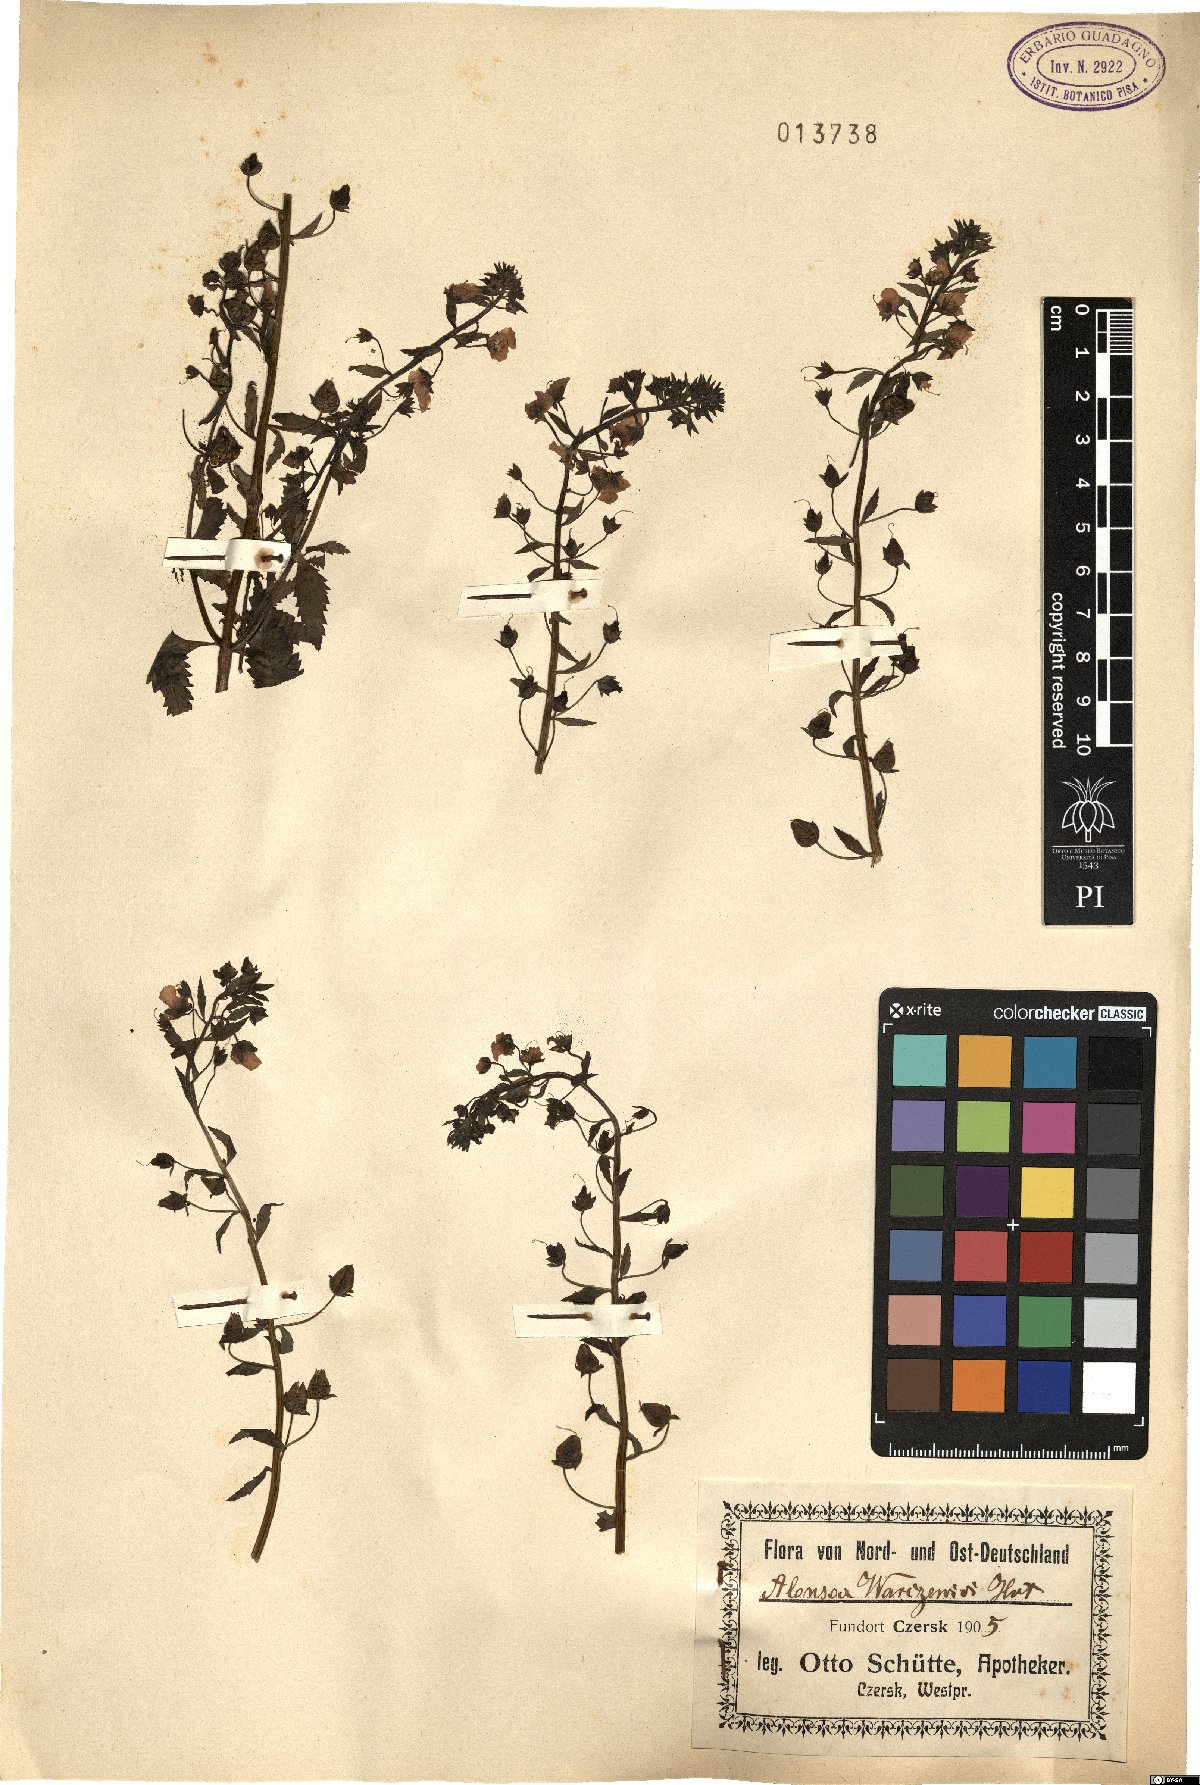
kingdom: Plantae
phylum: Tracheophyta
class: Magnoliopsida
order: Lamiales
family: Scrophulariaceae
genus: Alonsoa
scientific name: Alonsoa meridionalis
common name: Maskflower
